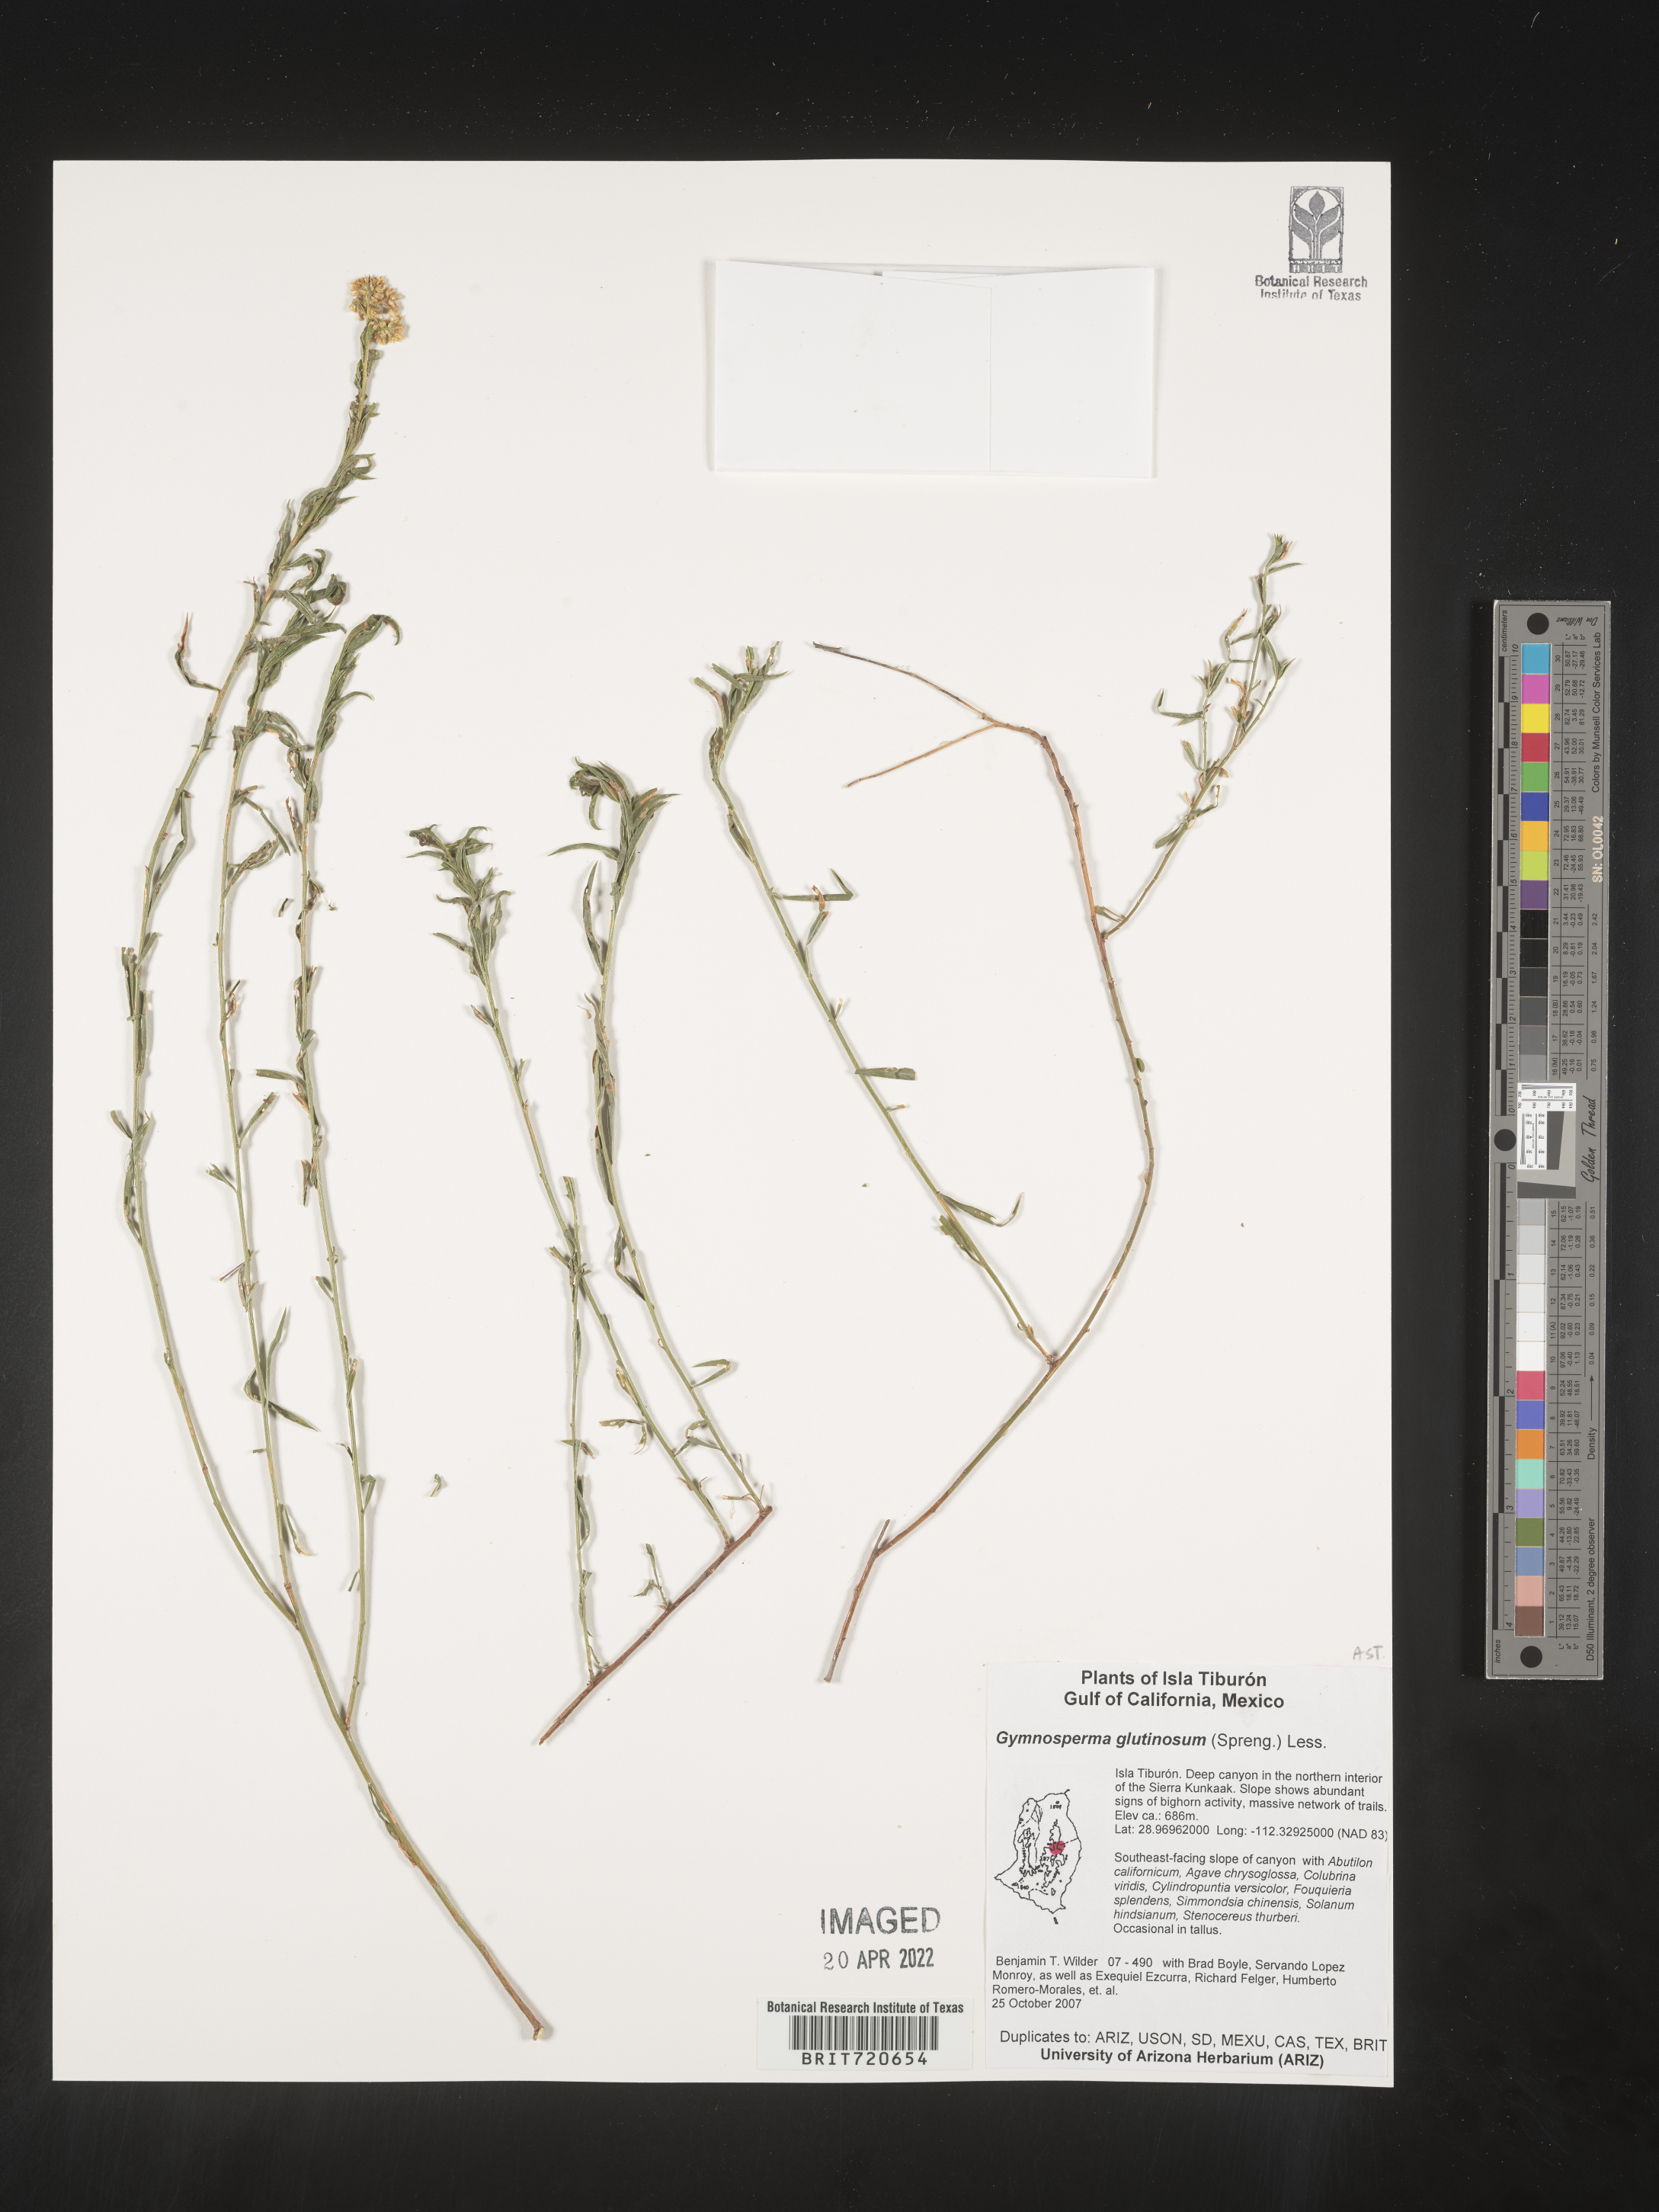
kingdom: Plantae
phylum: Tracheophyta
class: Magnoliopsida
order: Asterales
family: Asteraceae
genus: Gymnosperma
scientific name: Gymnosperma glutinosum
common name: Gumhead
